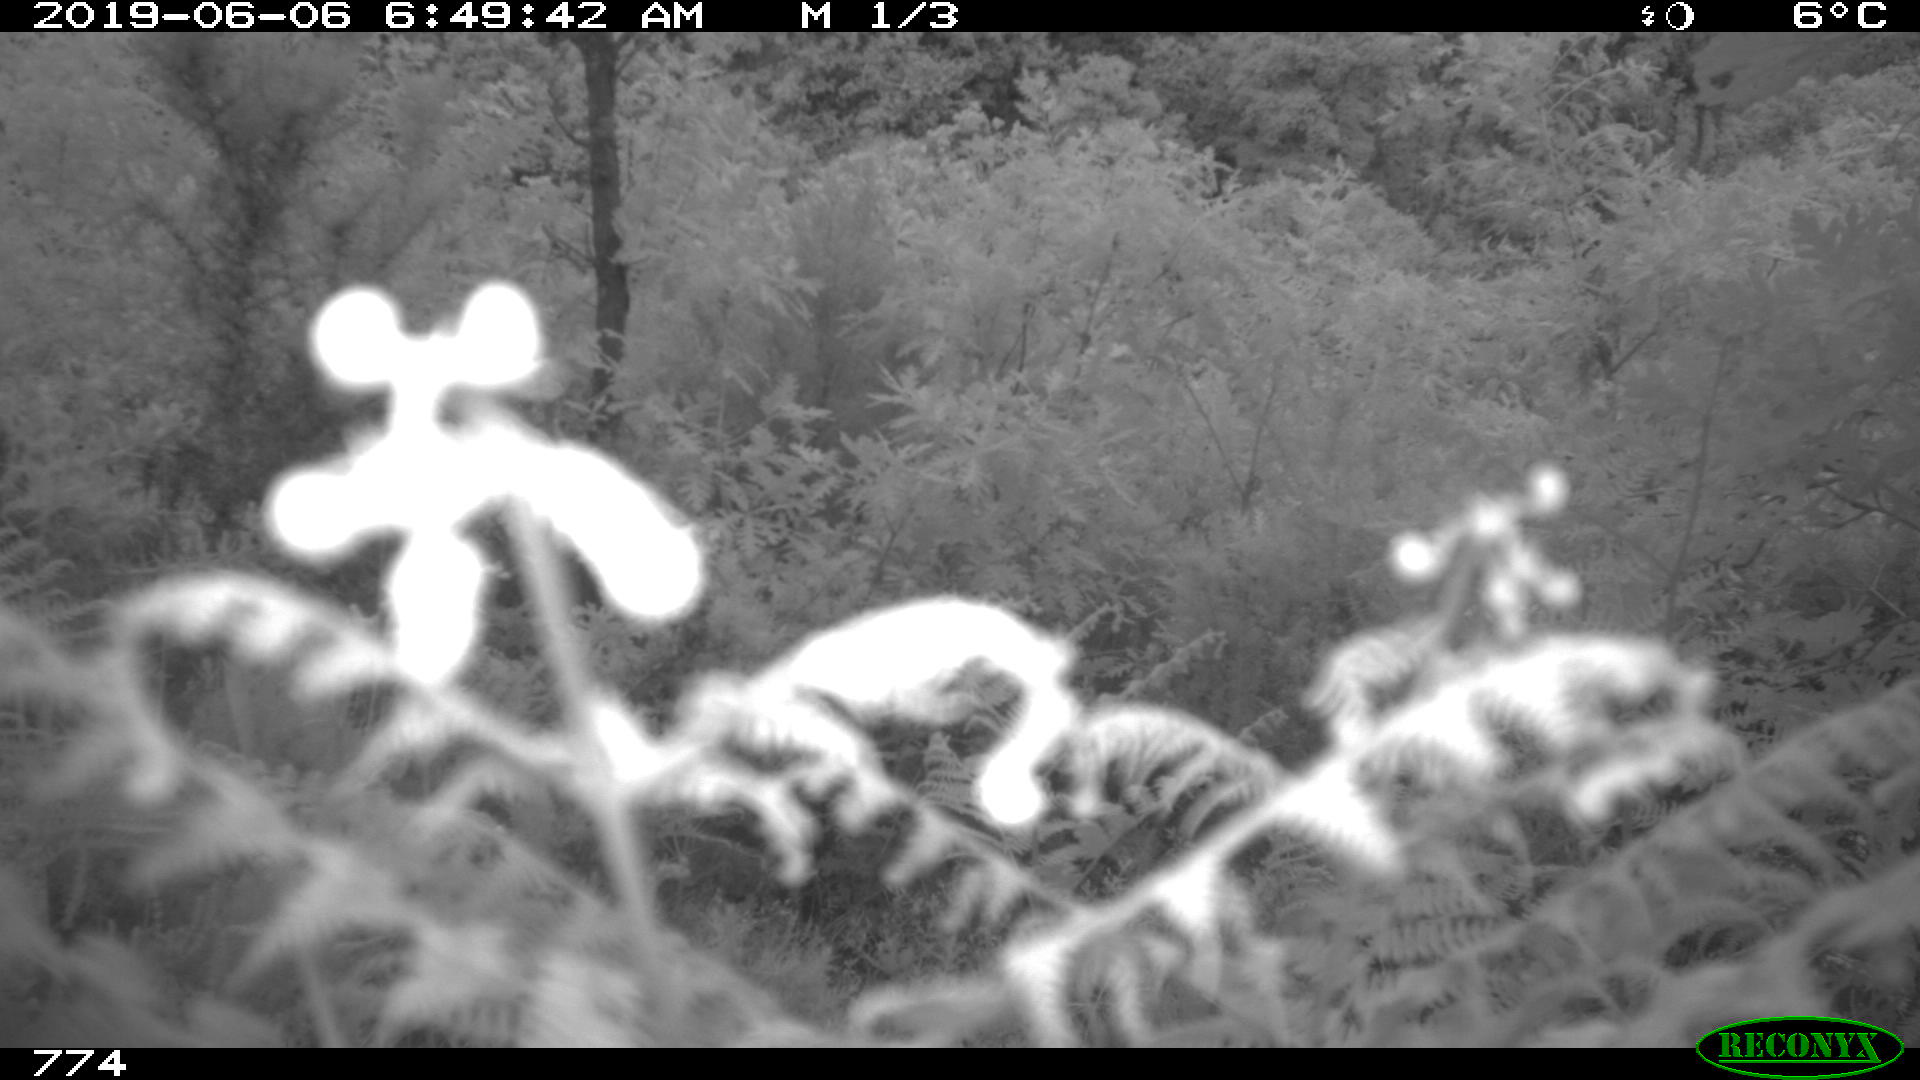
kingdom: Animalia
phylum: Chordata
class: Mammalia
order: Artiodactyla
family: Suidae
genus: Sus
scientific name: Sus scrofa
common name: Wild boar
